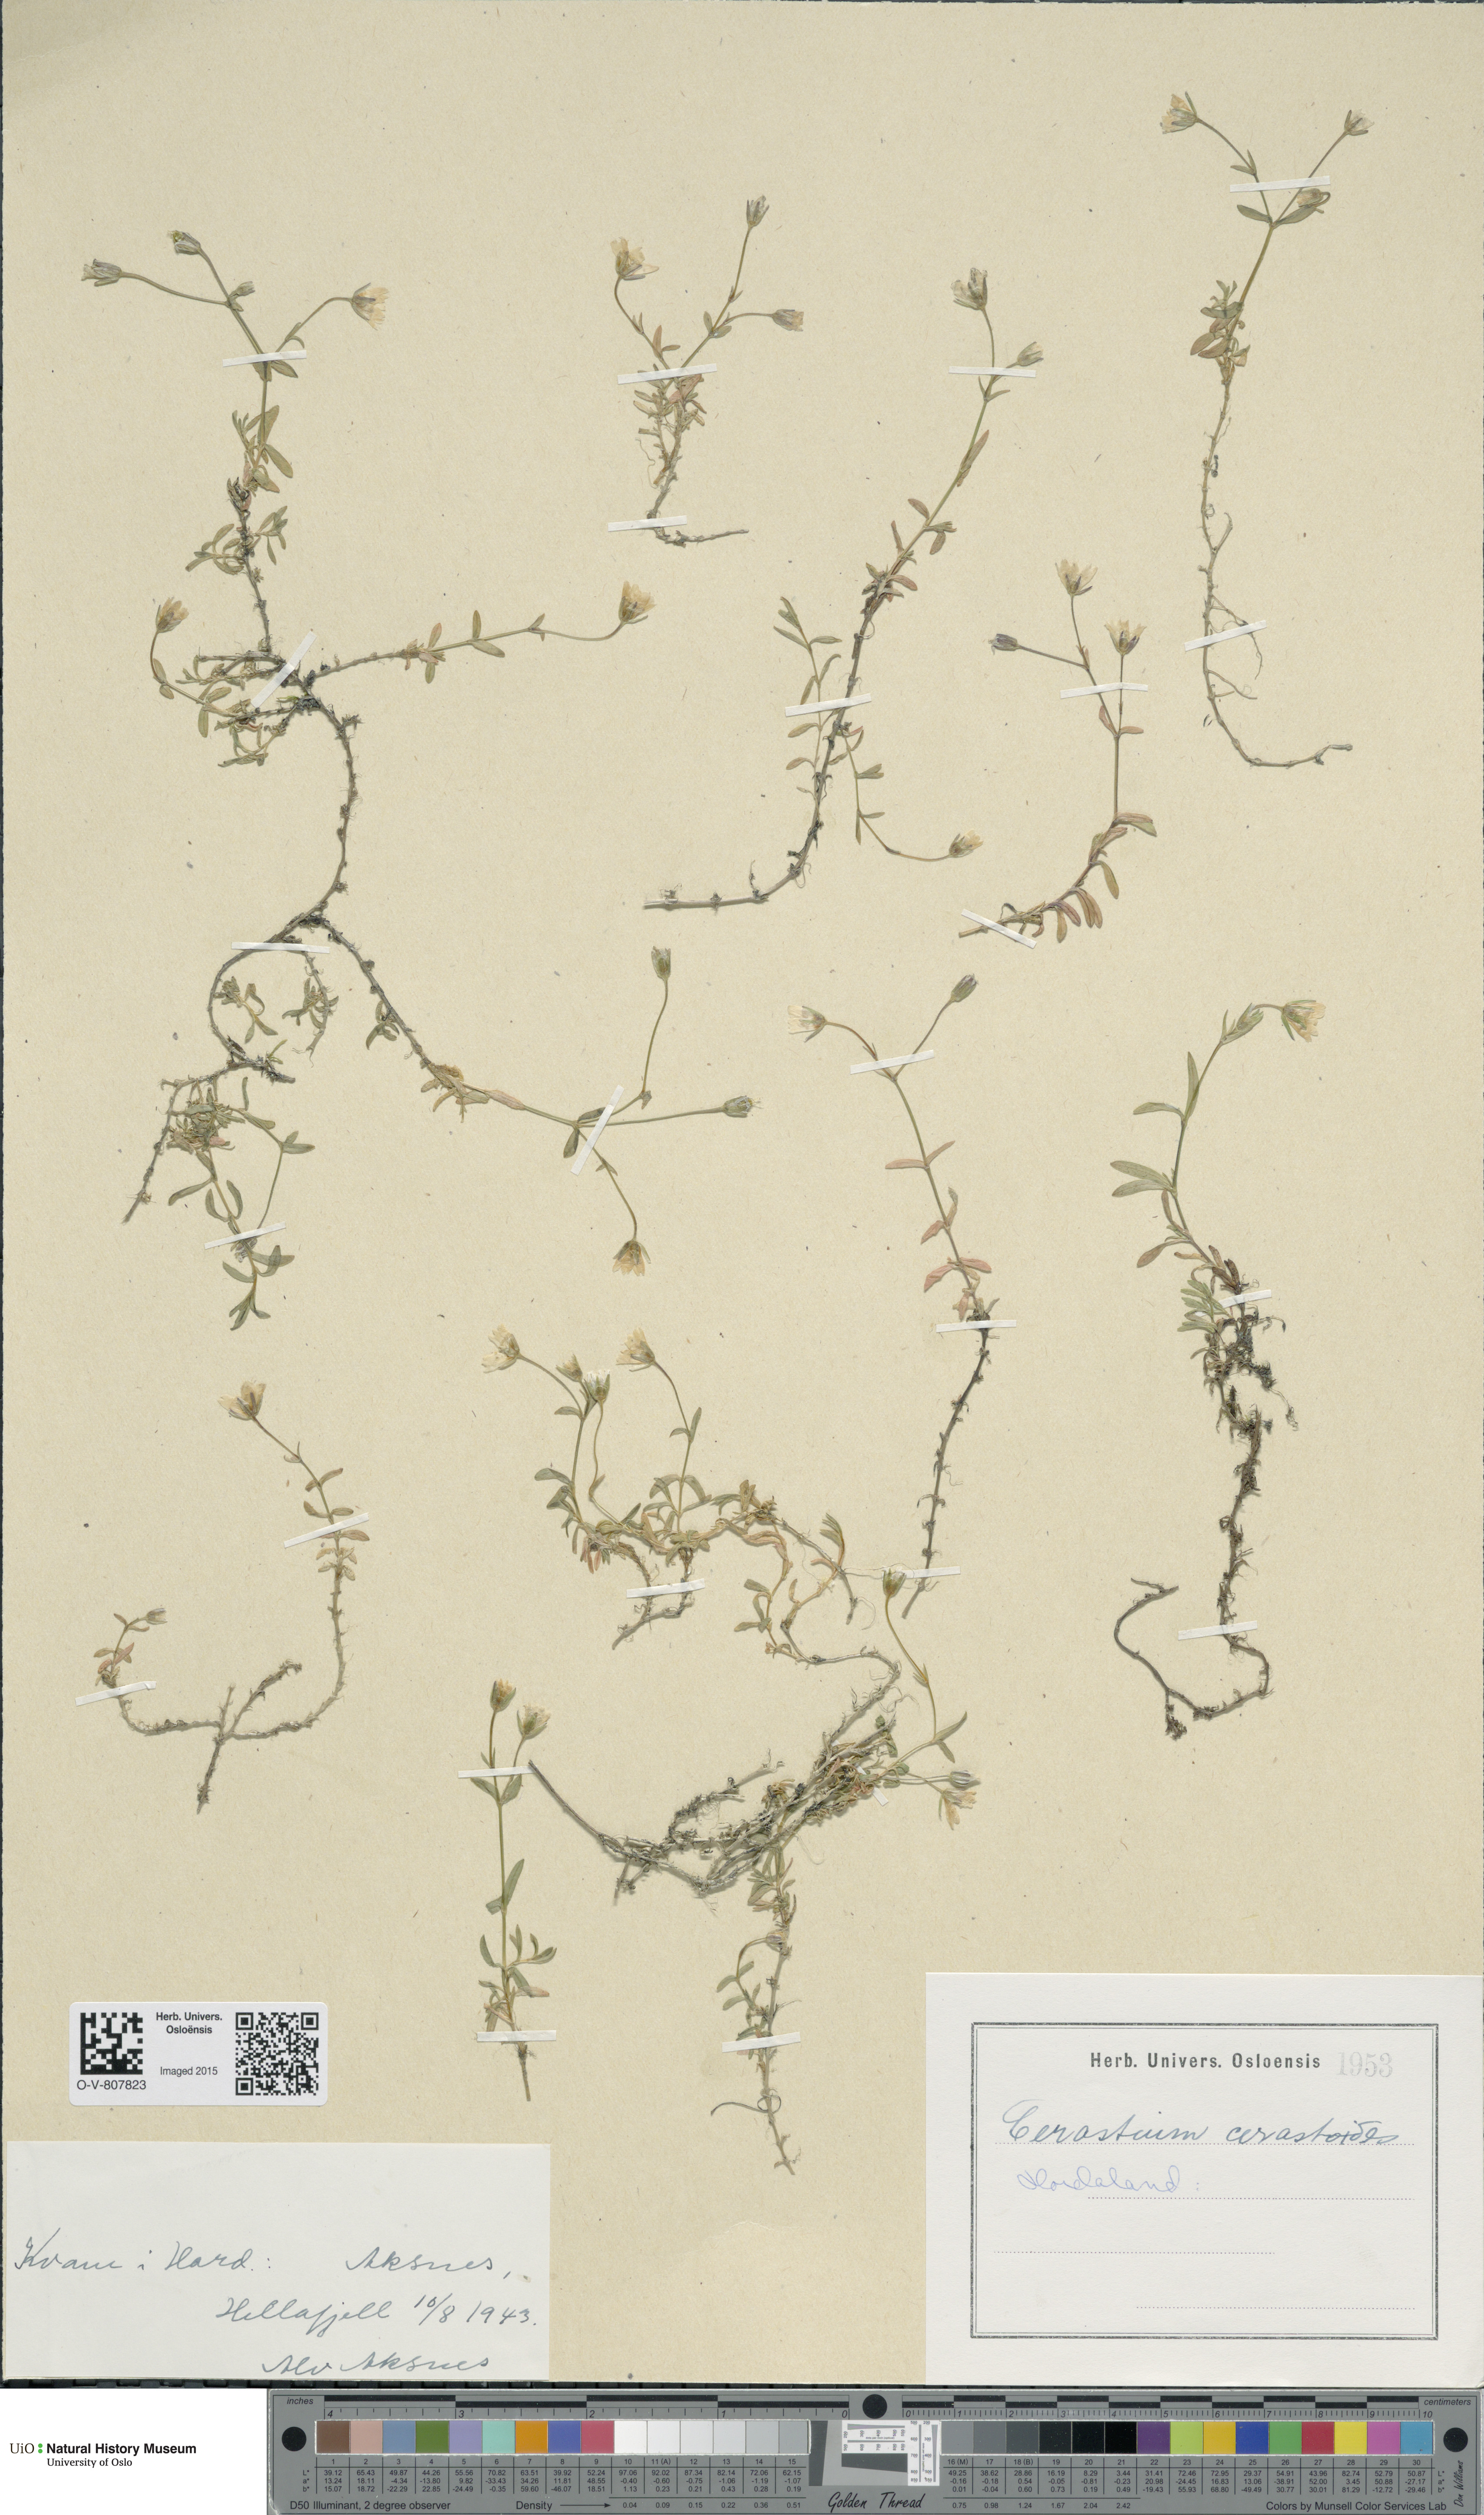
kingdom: Plantae
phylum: Tracheophyta
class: Magnoliopsida
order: Caryophyllales
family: Caryophyllaceae
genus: Dichodon
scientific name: Dichodon cerastoides
